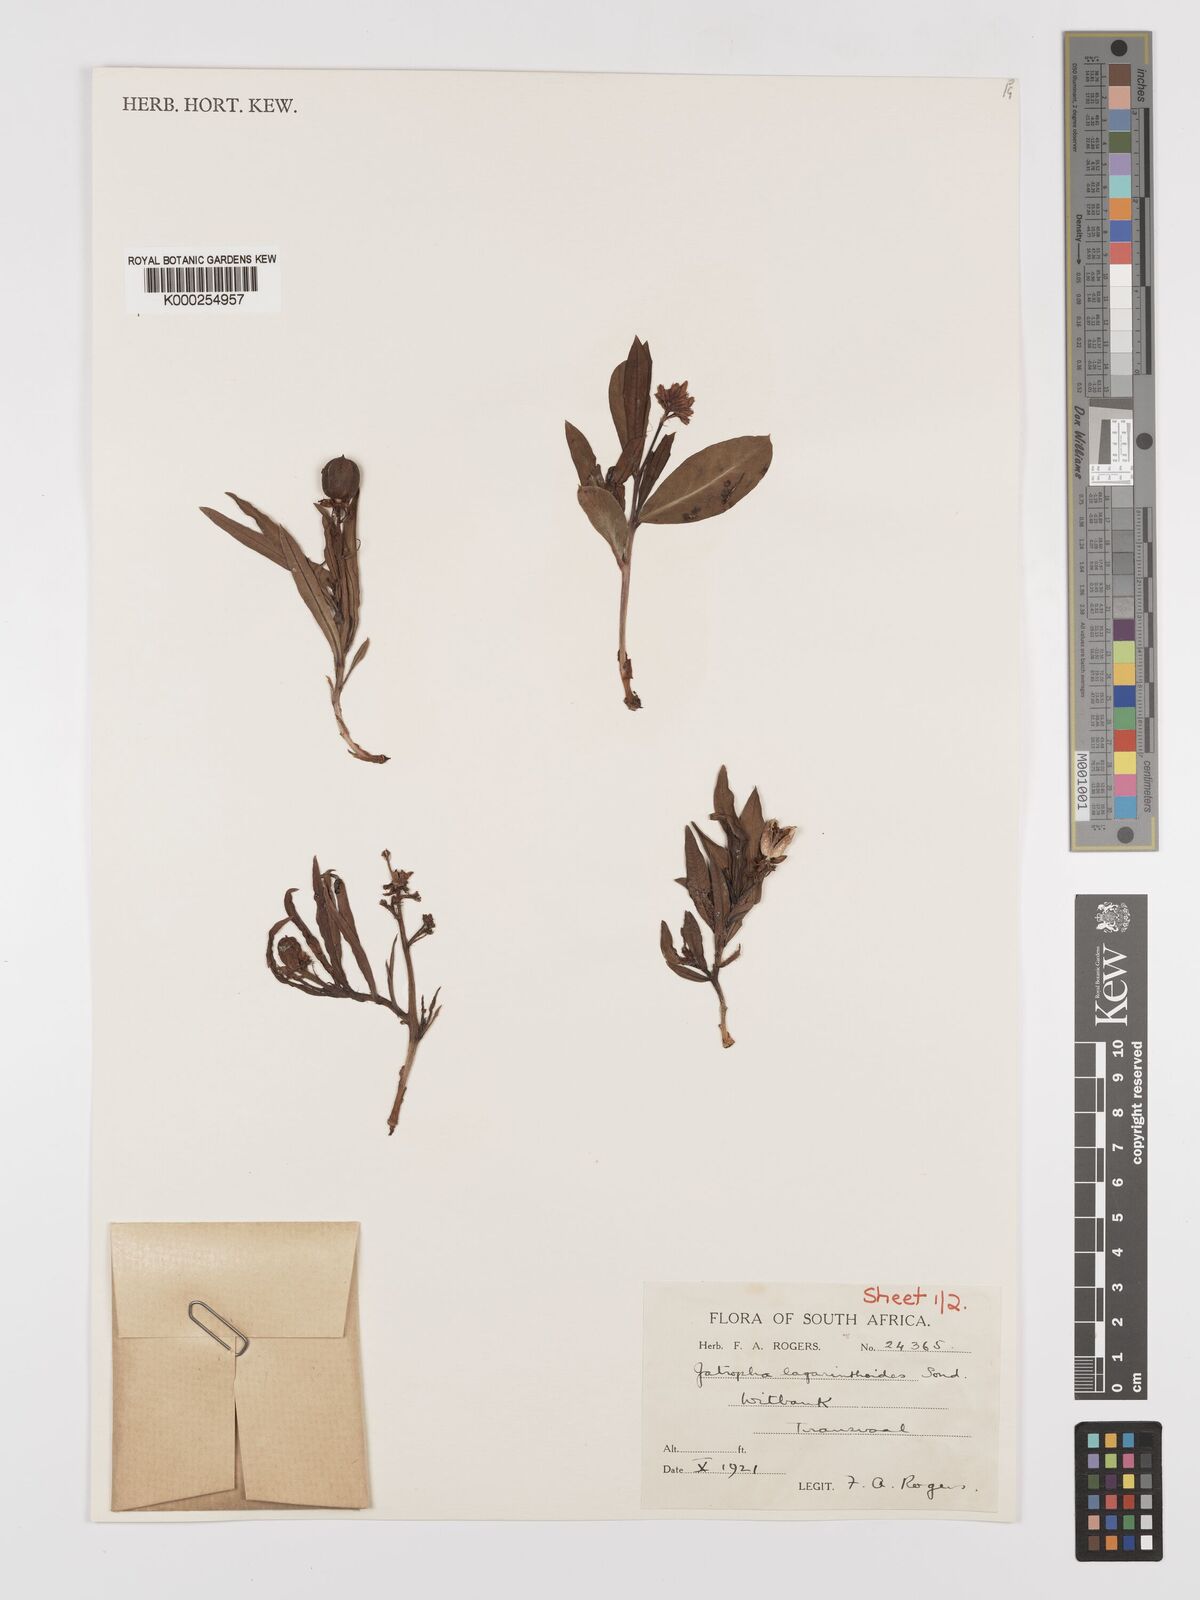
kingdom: Plantae
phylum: Tracheophyta
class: Magnoliopsida
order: Malpighiales
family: Euphorbiaceae
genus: Jatropha
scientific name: Jatropha lagarinthoides
